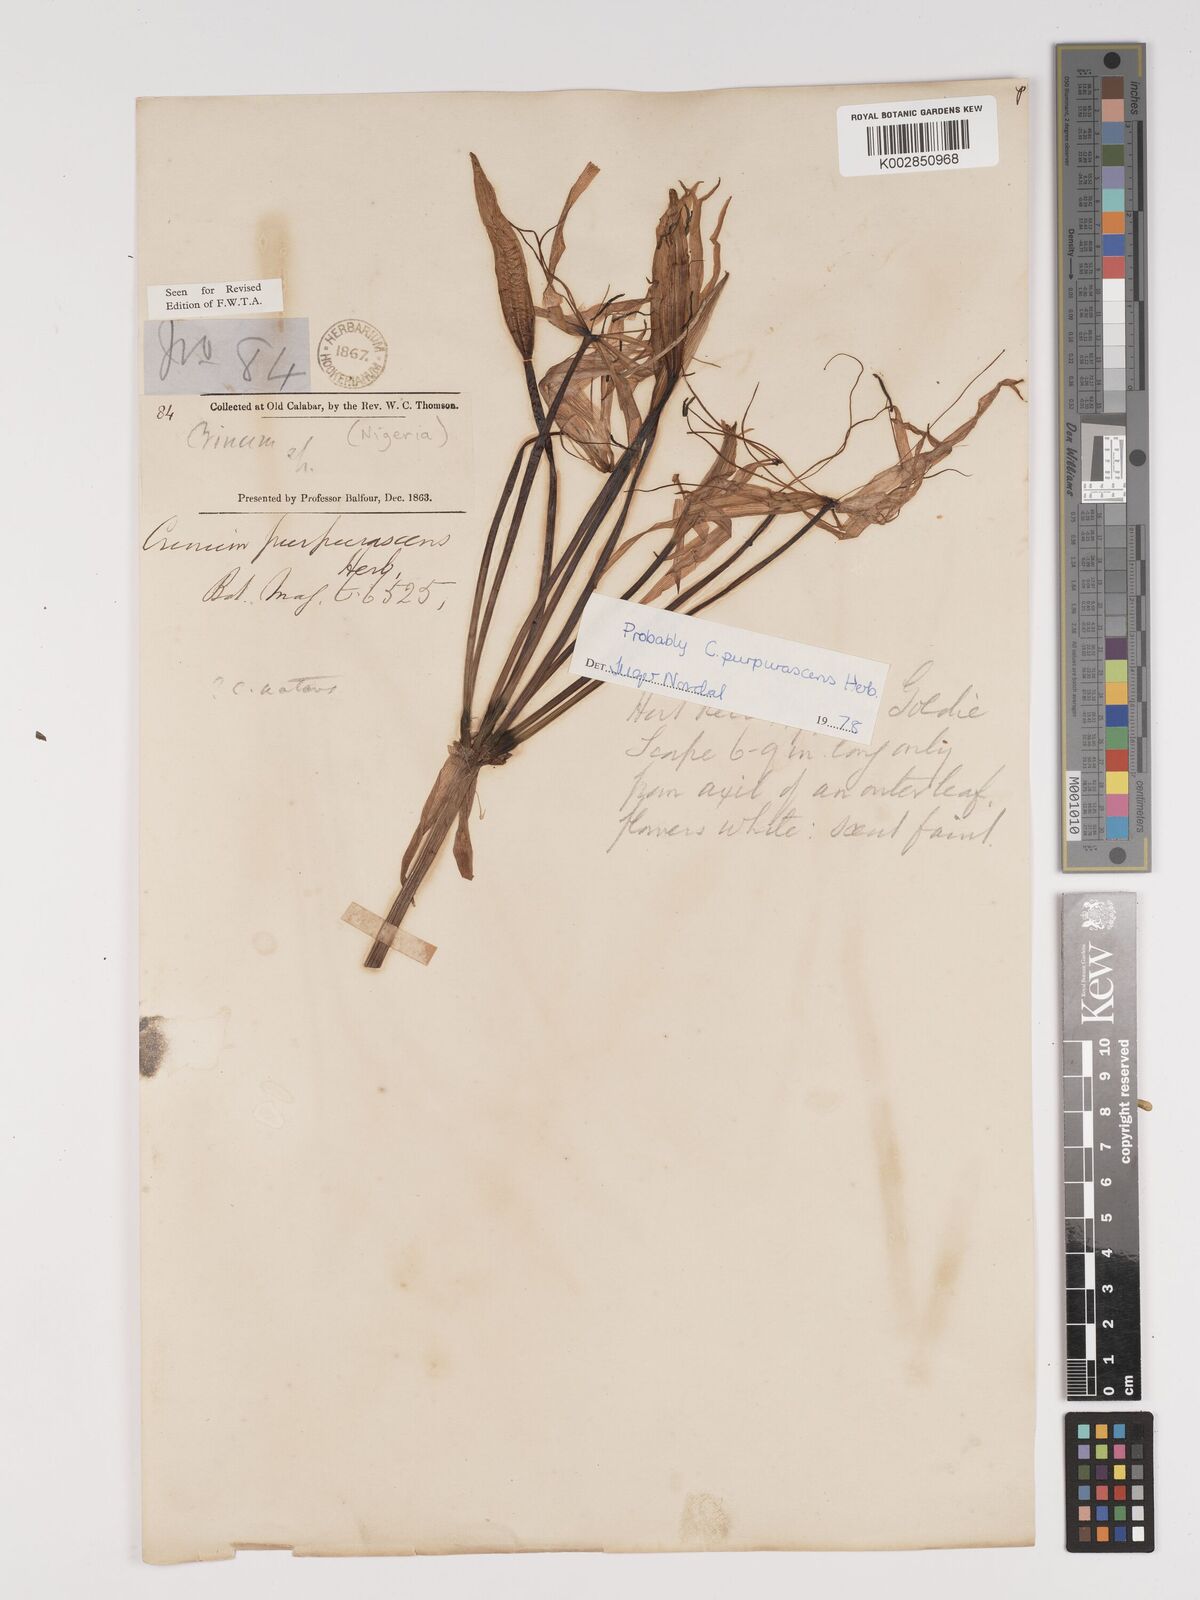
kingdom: Plantae
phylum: Tracheophyta
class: Liliopsida
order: Asparagales
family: Amaryllidaceae
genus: Crinum
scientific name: Crinum natans
